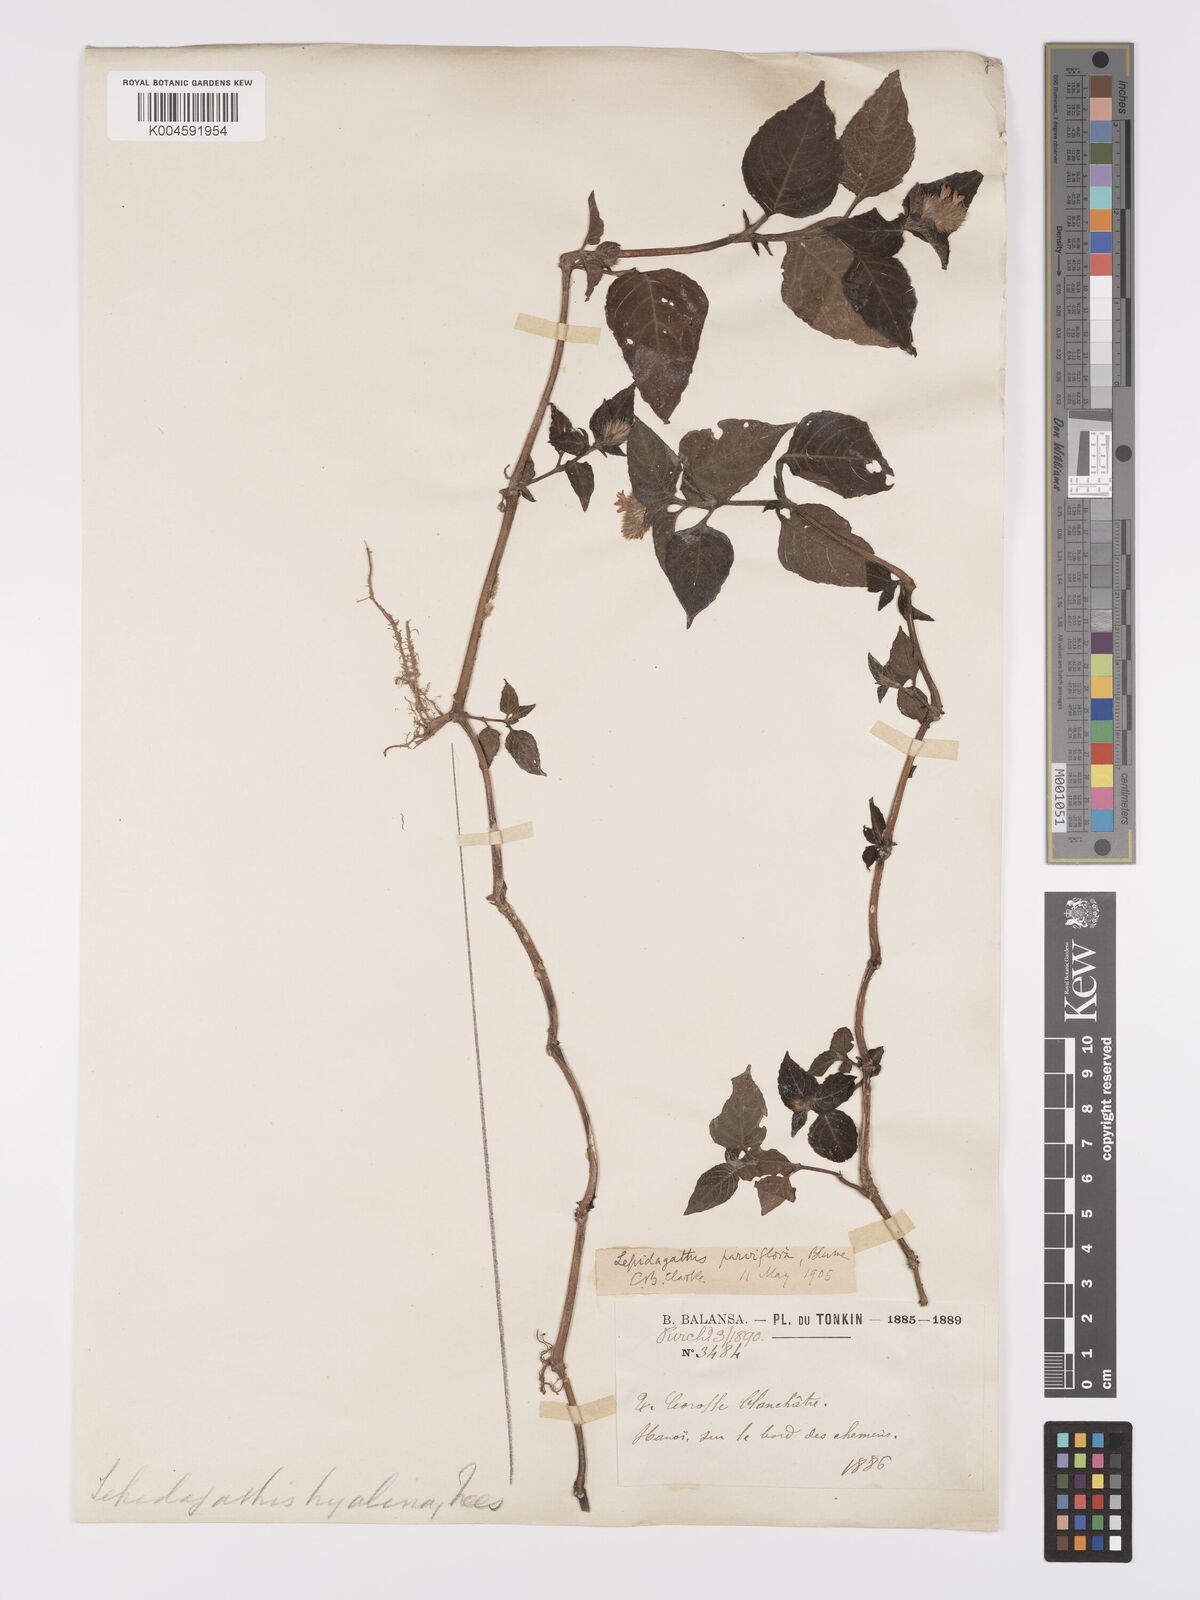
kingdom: Plantae
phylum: Tracheophyta
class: Magnoliopsida
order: Lamiales
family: Acanthaceae
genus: Lepidagathis
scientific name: Lepidagathis incurva
